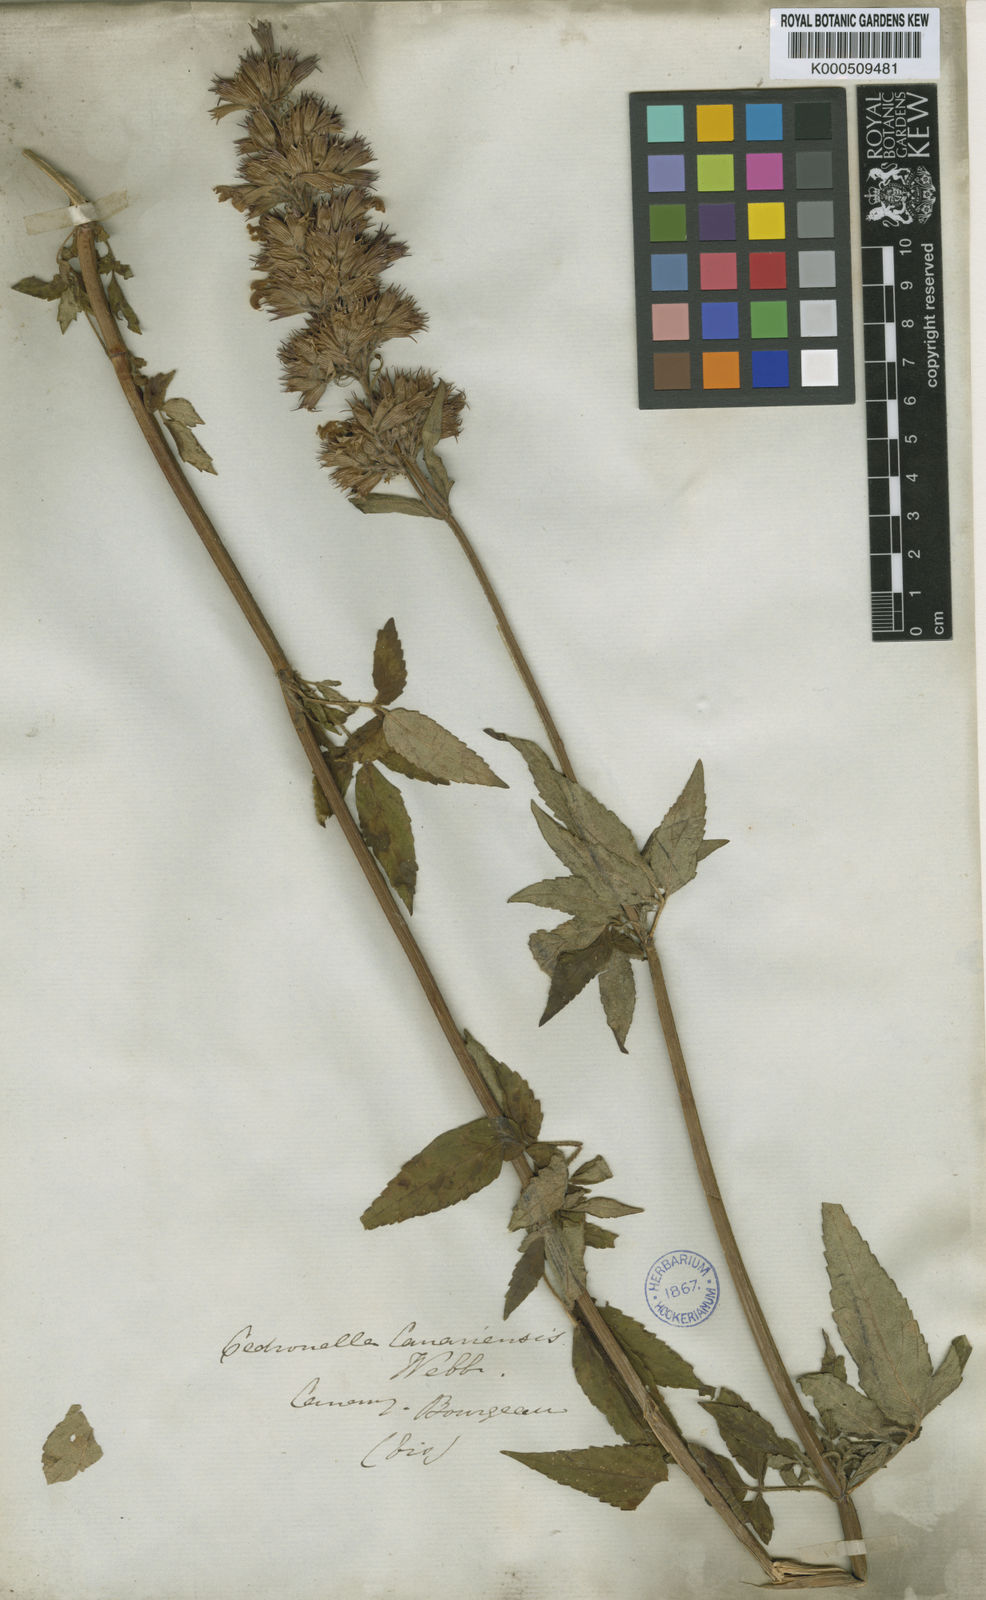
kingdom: Plantae
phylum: Tracheophyta
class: Magnoliopsida
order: Lamiales
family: Lamiaceae
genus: Cedronella
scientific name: Cedronella canariensis
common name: Canary islands balm
